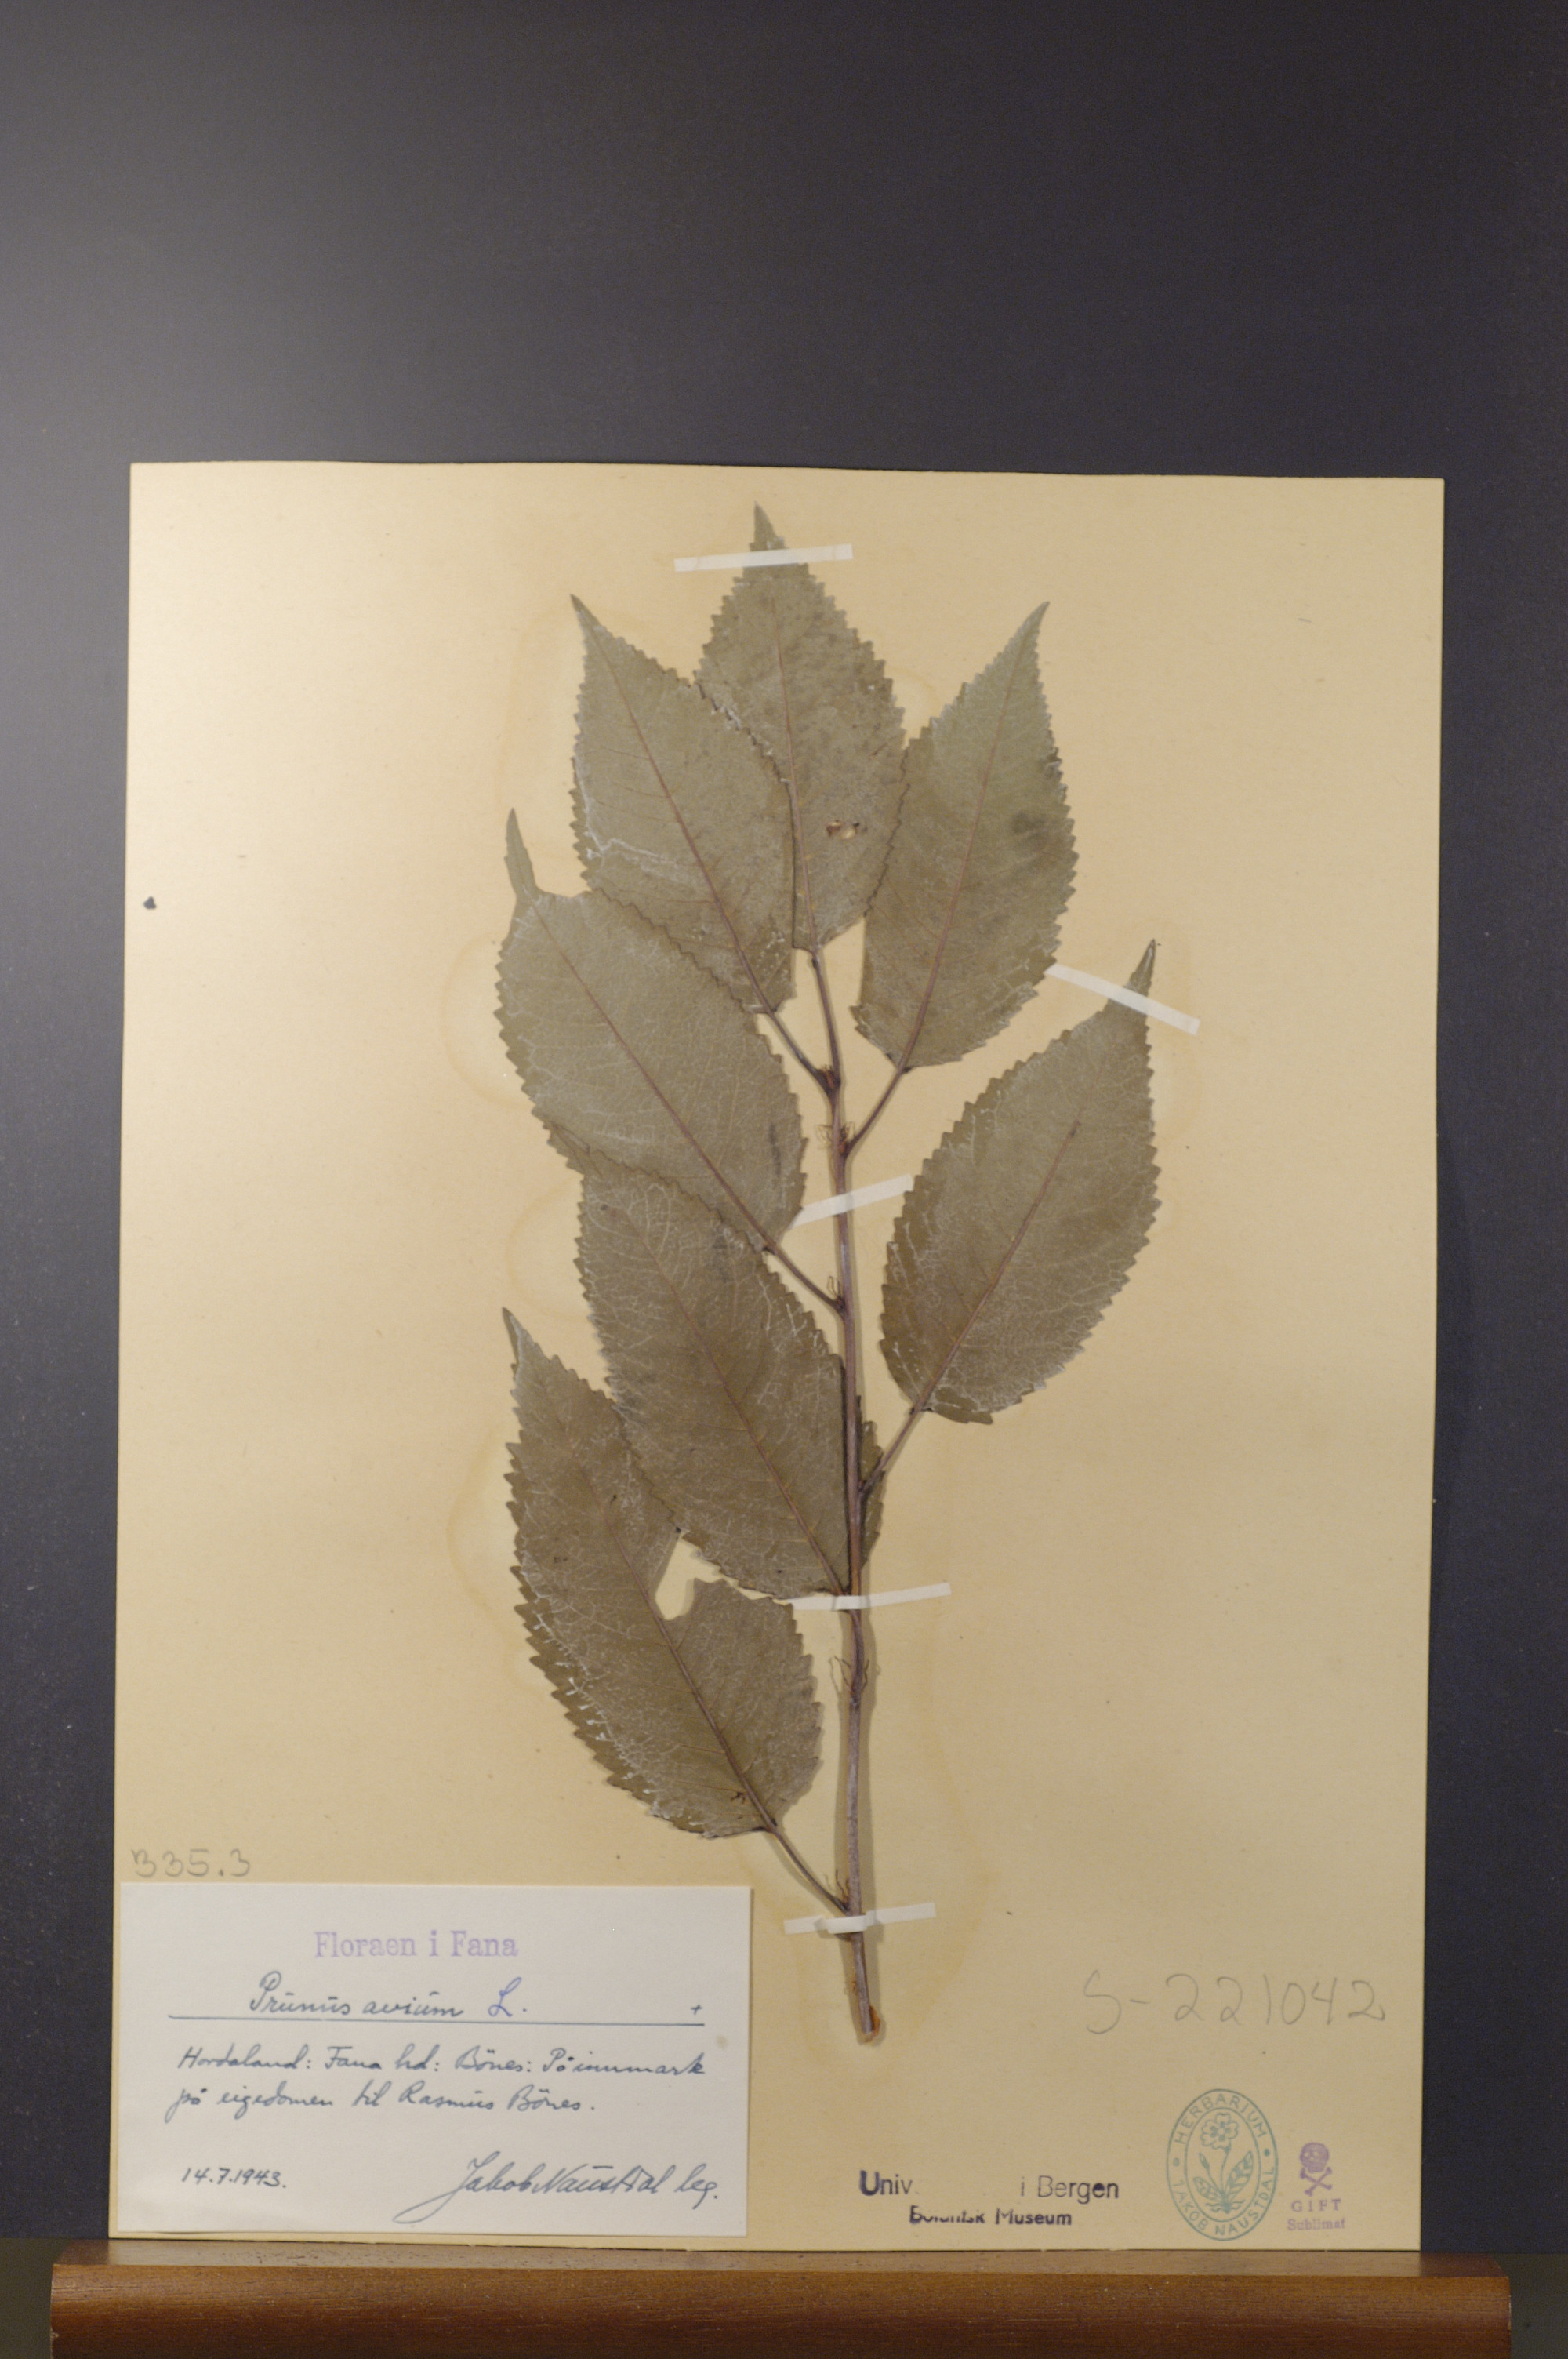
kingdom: Plantae
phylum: Tracheophyta
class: Magnoliopsida
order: Rosales
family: Rosaceae
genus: Prunus
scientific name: Prunus avium
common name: Sweet cherry
